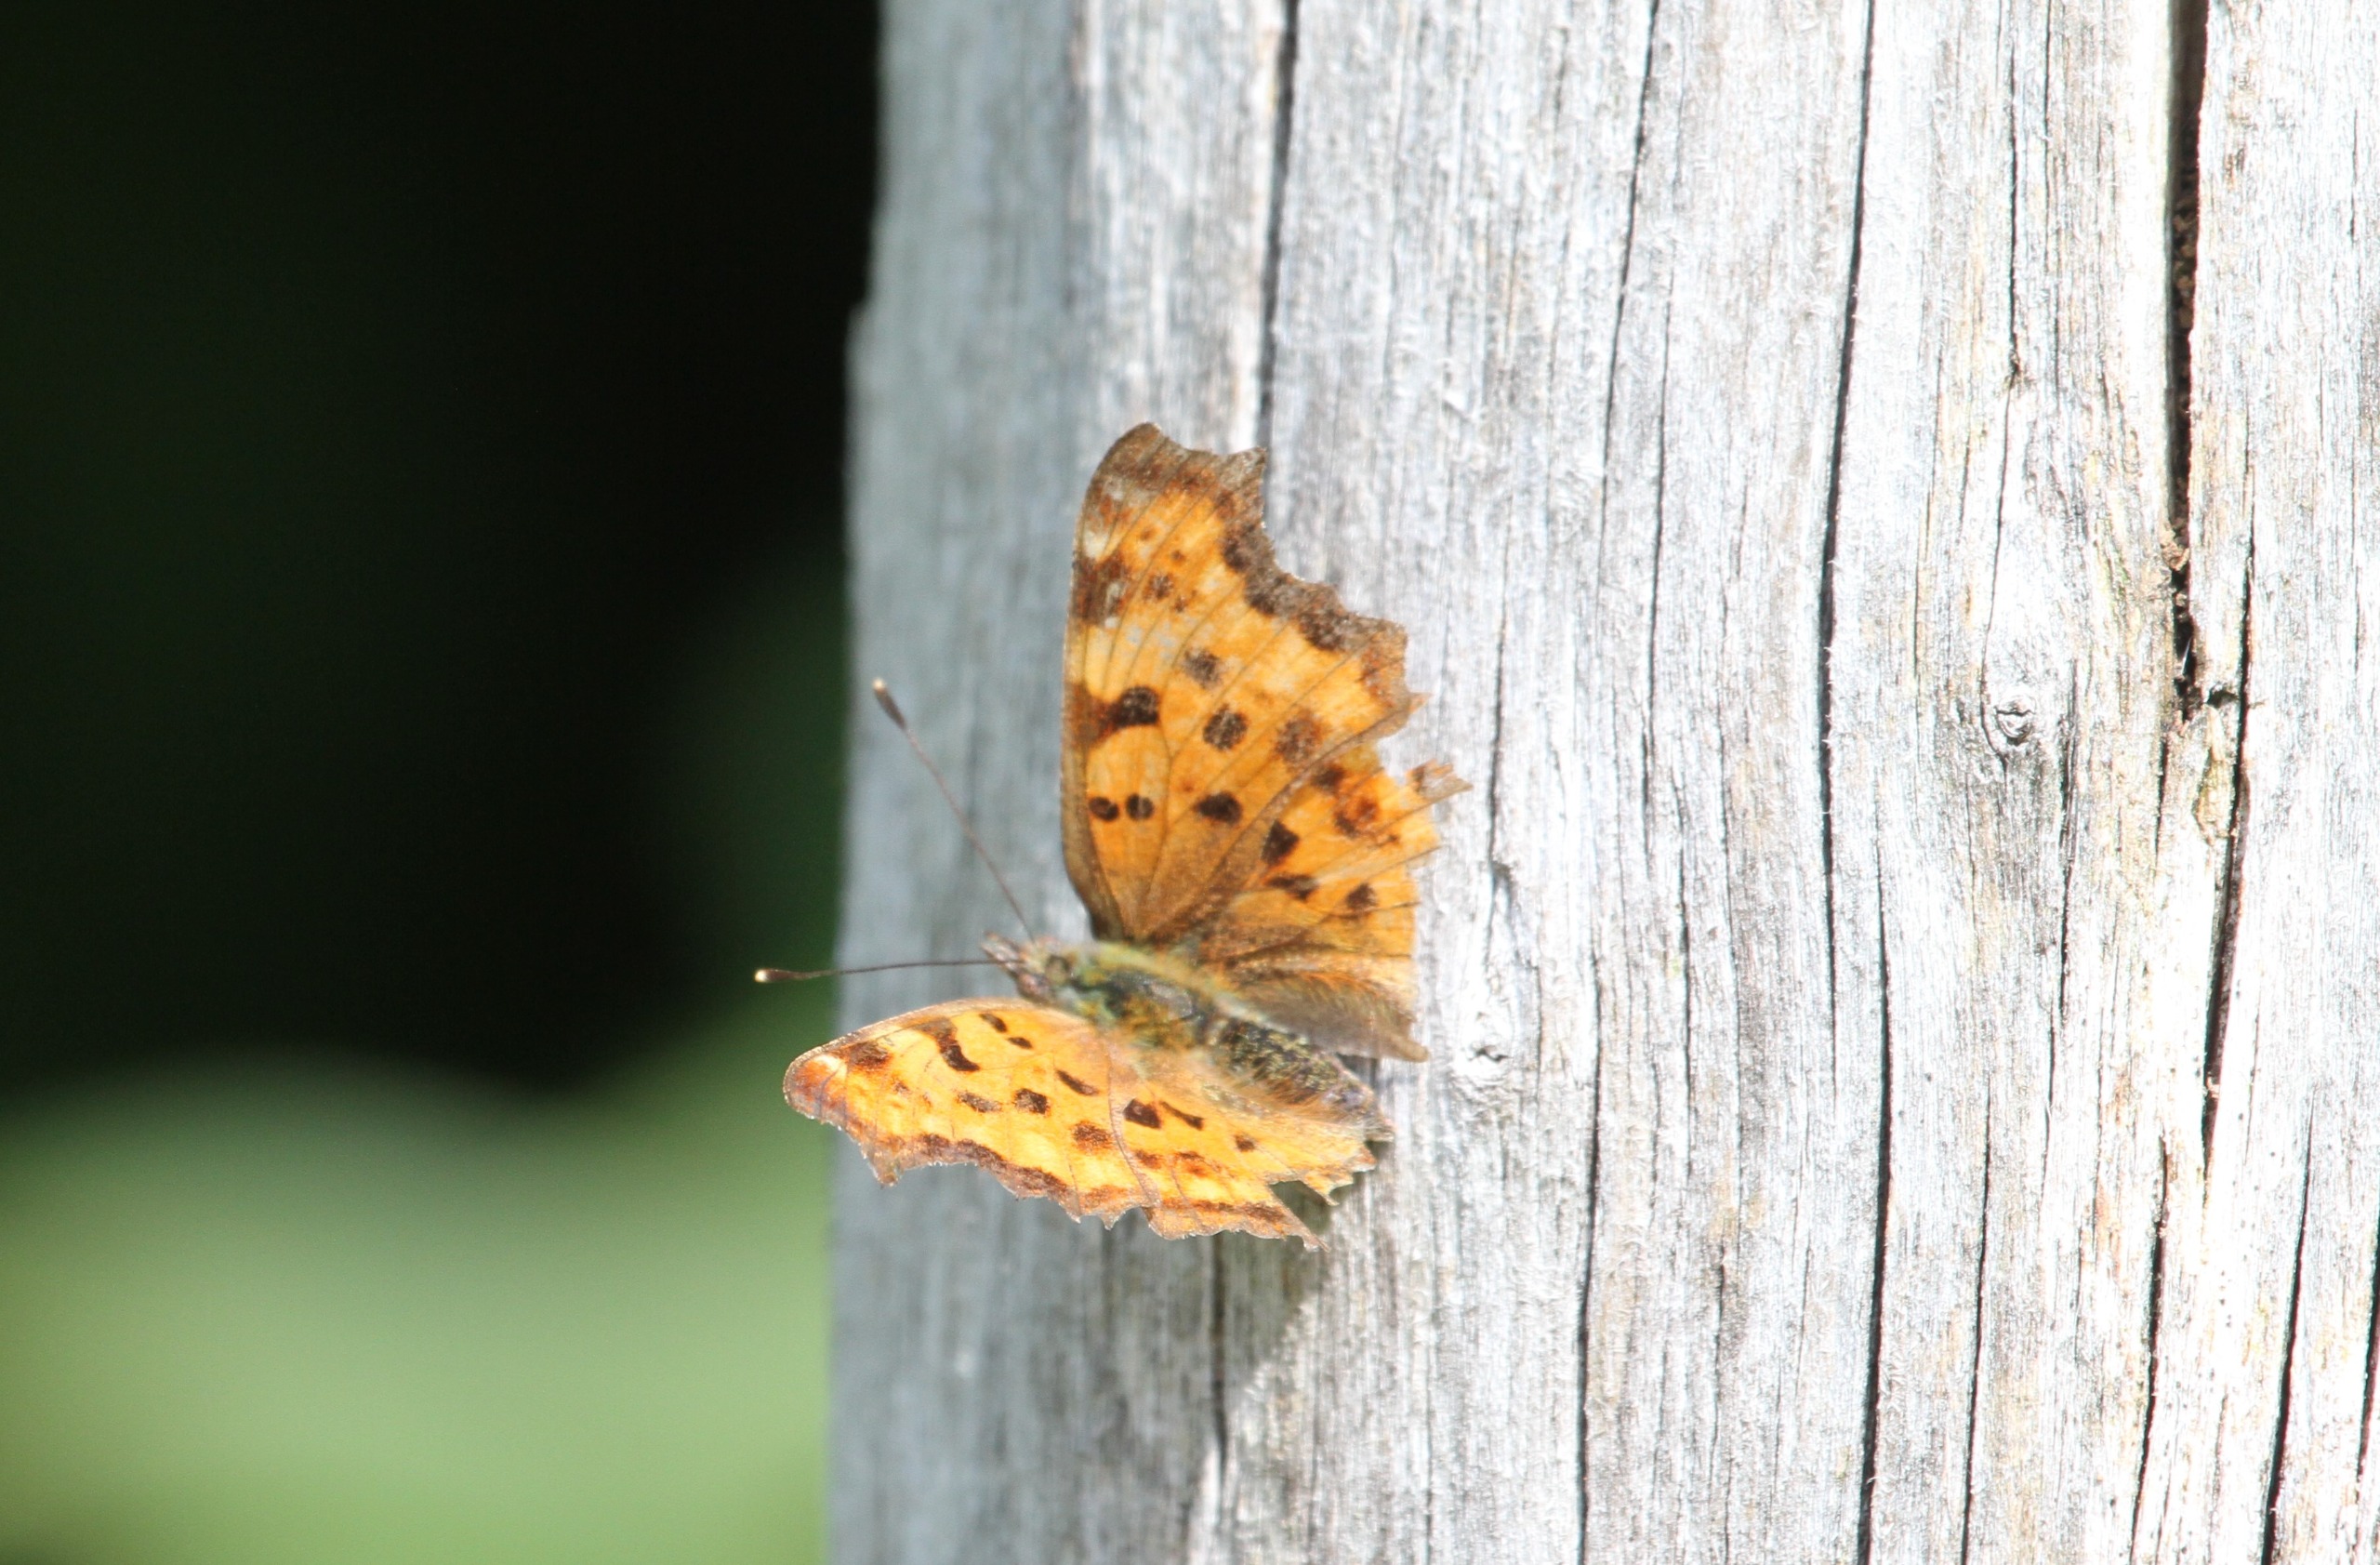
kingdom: Animalia
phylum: Arthropoda
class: Insecta
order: Lepidoptera
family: Nymphalidae
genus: Polygonia
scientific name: Polygonia c-album
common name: Det hvide C
